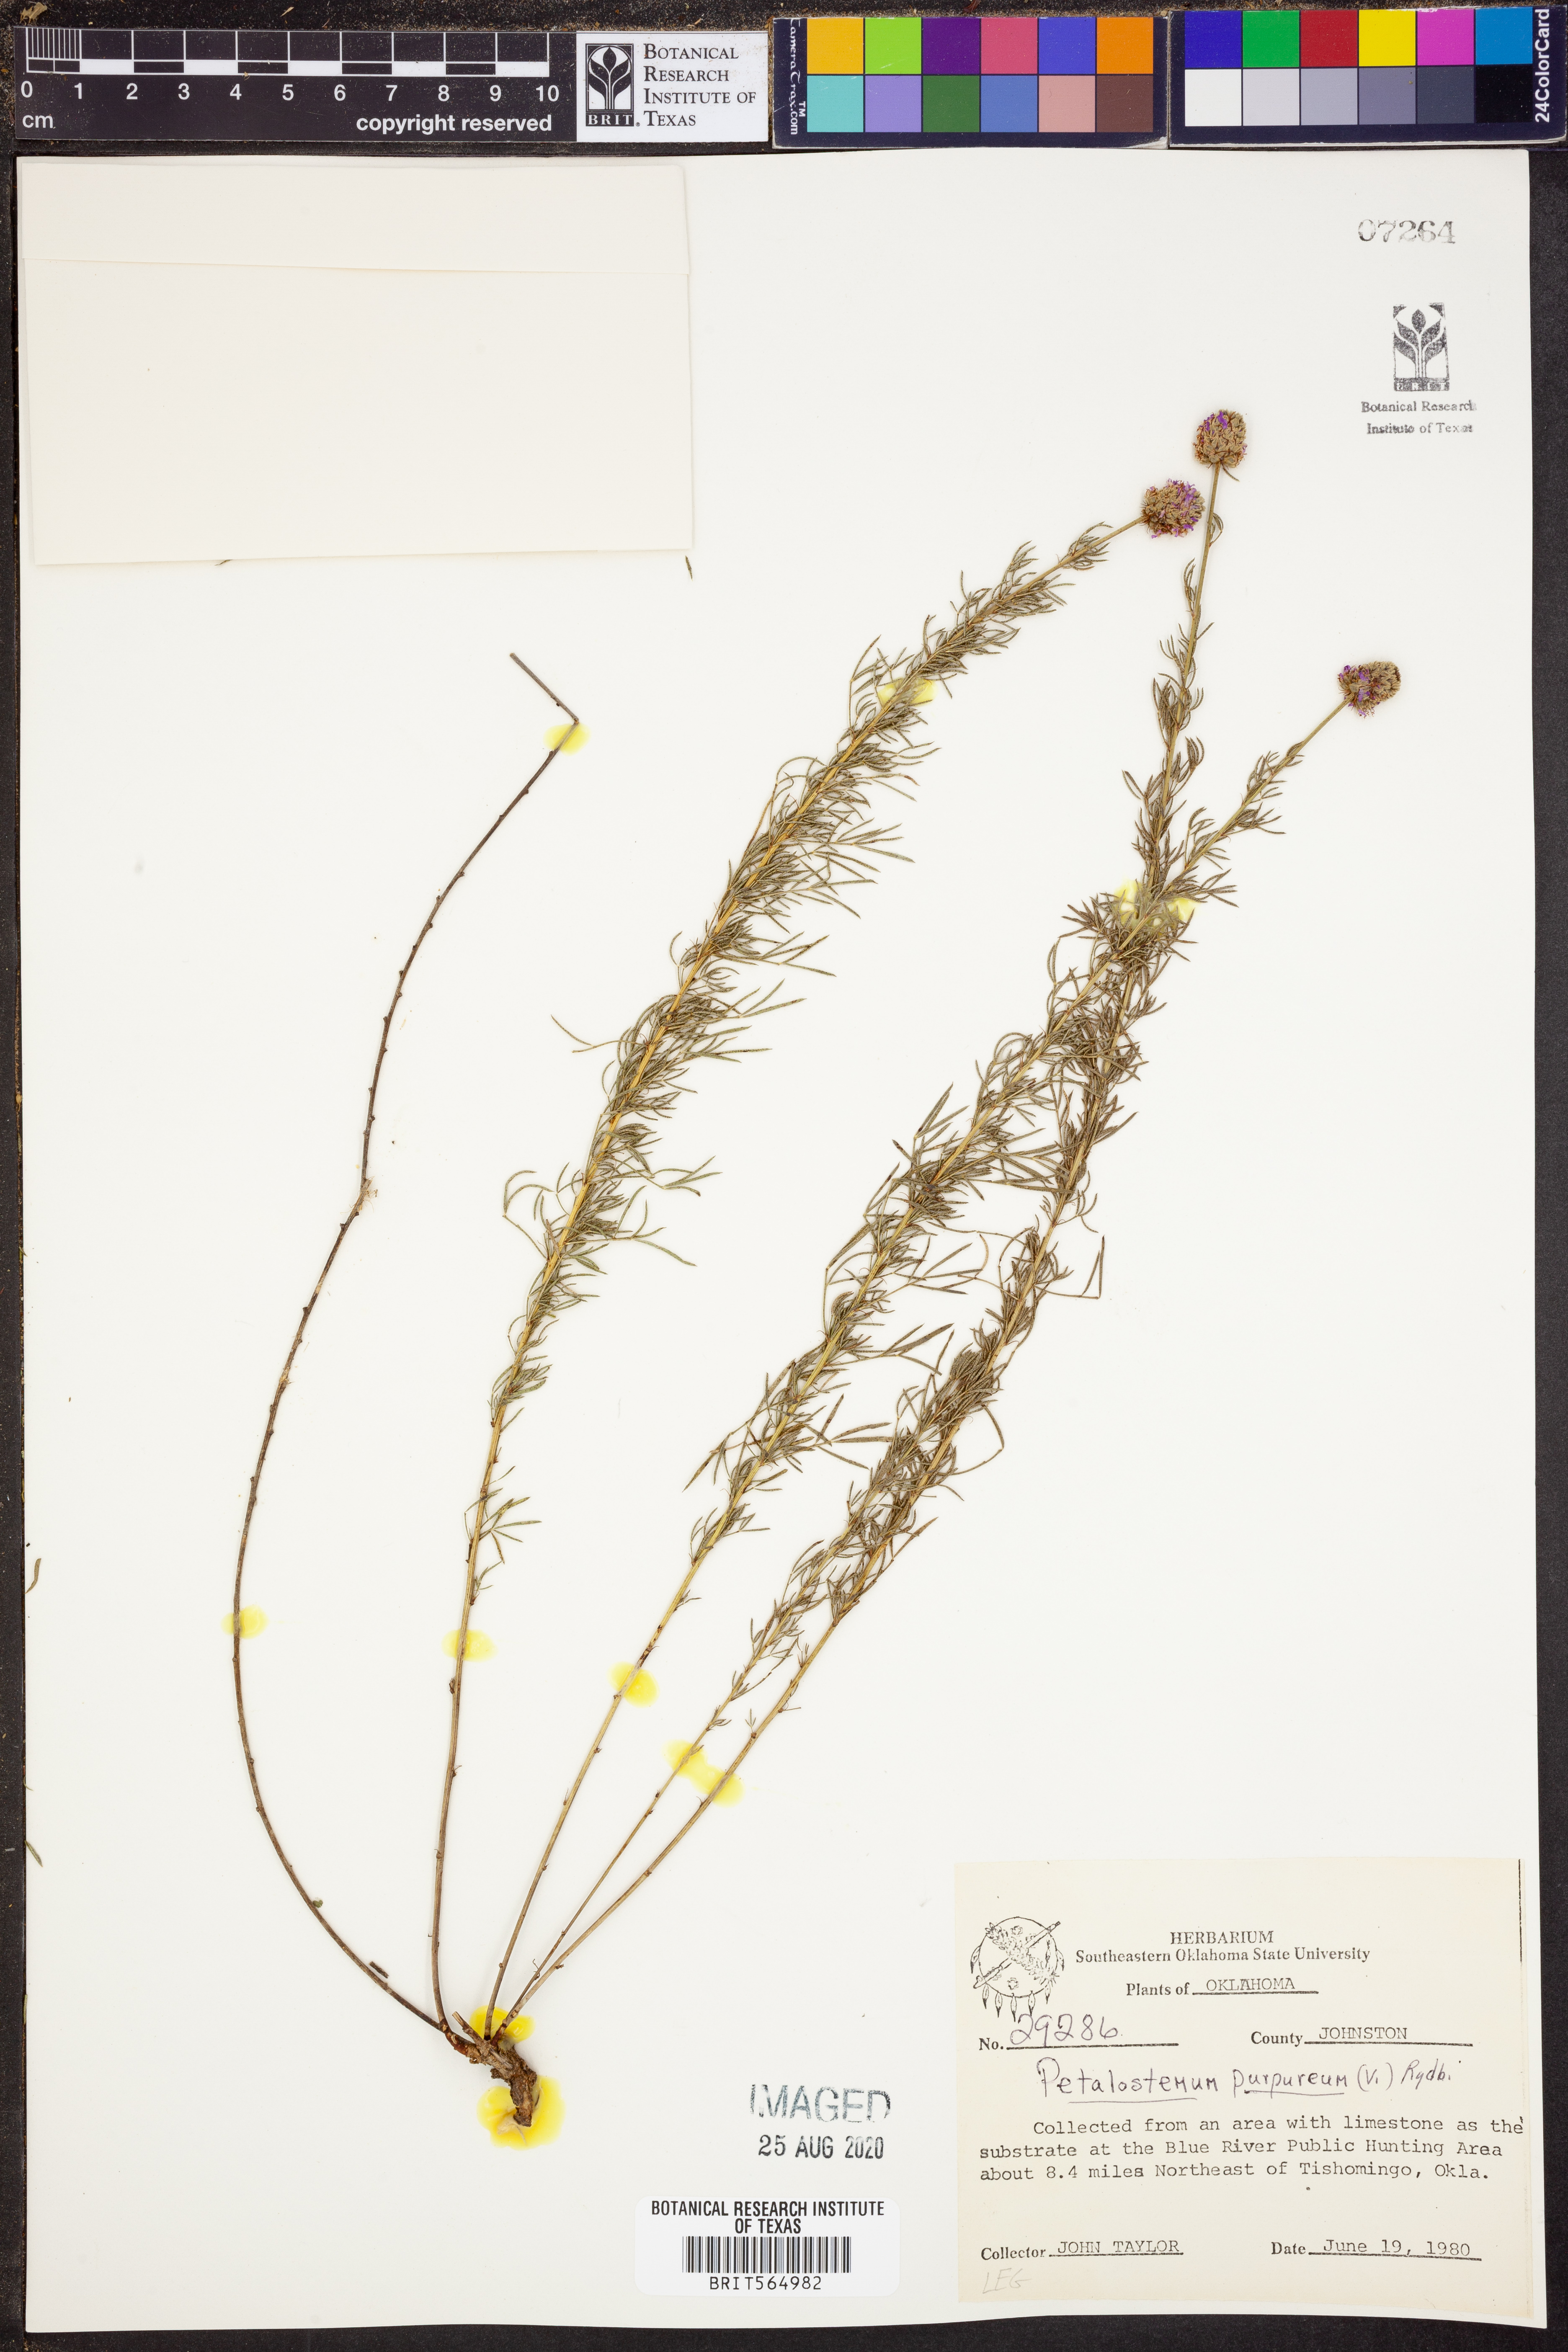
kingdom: Plantae
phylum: Tracheophyta
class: Magnoliopsida
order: Fabales
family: Fabaceae
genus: Dalea
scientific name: Dalea purpurea
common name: Purple prairie-clover
